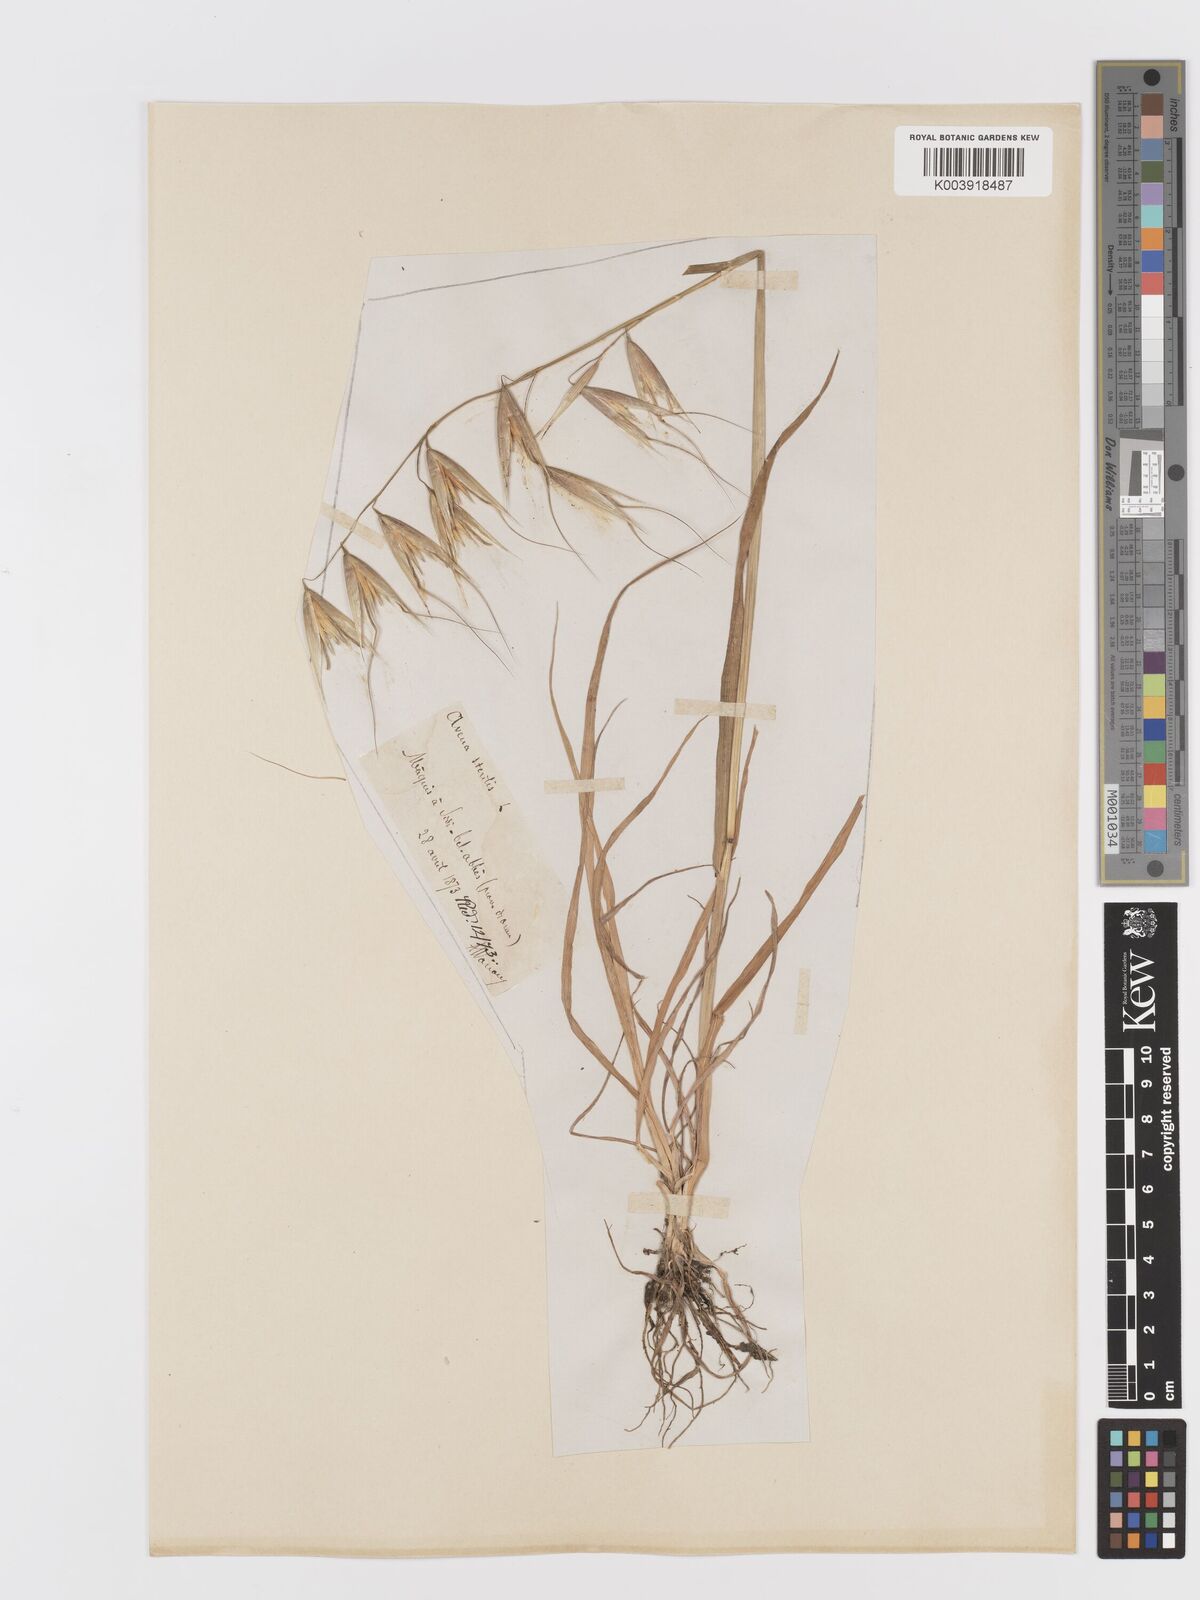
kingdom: Plantae
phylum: Tracheophyta
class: Liliopsida
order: Poales
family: Poaceae
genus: Avena
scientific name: Avena sterilis
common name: Animated oat
